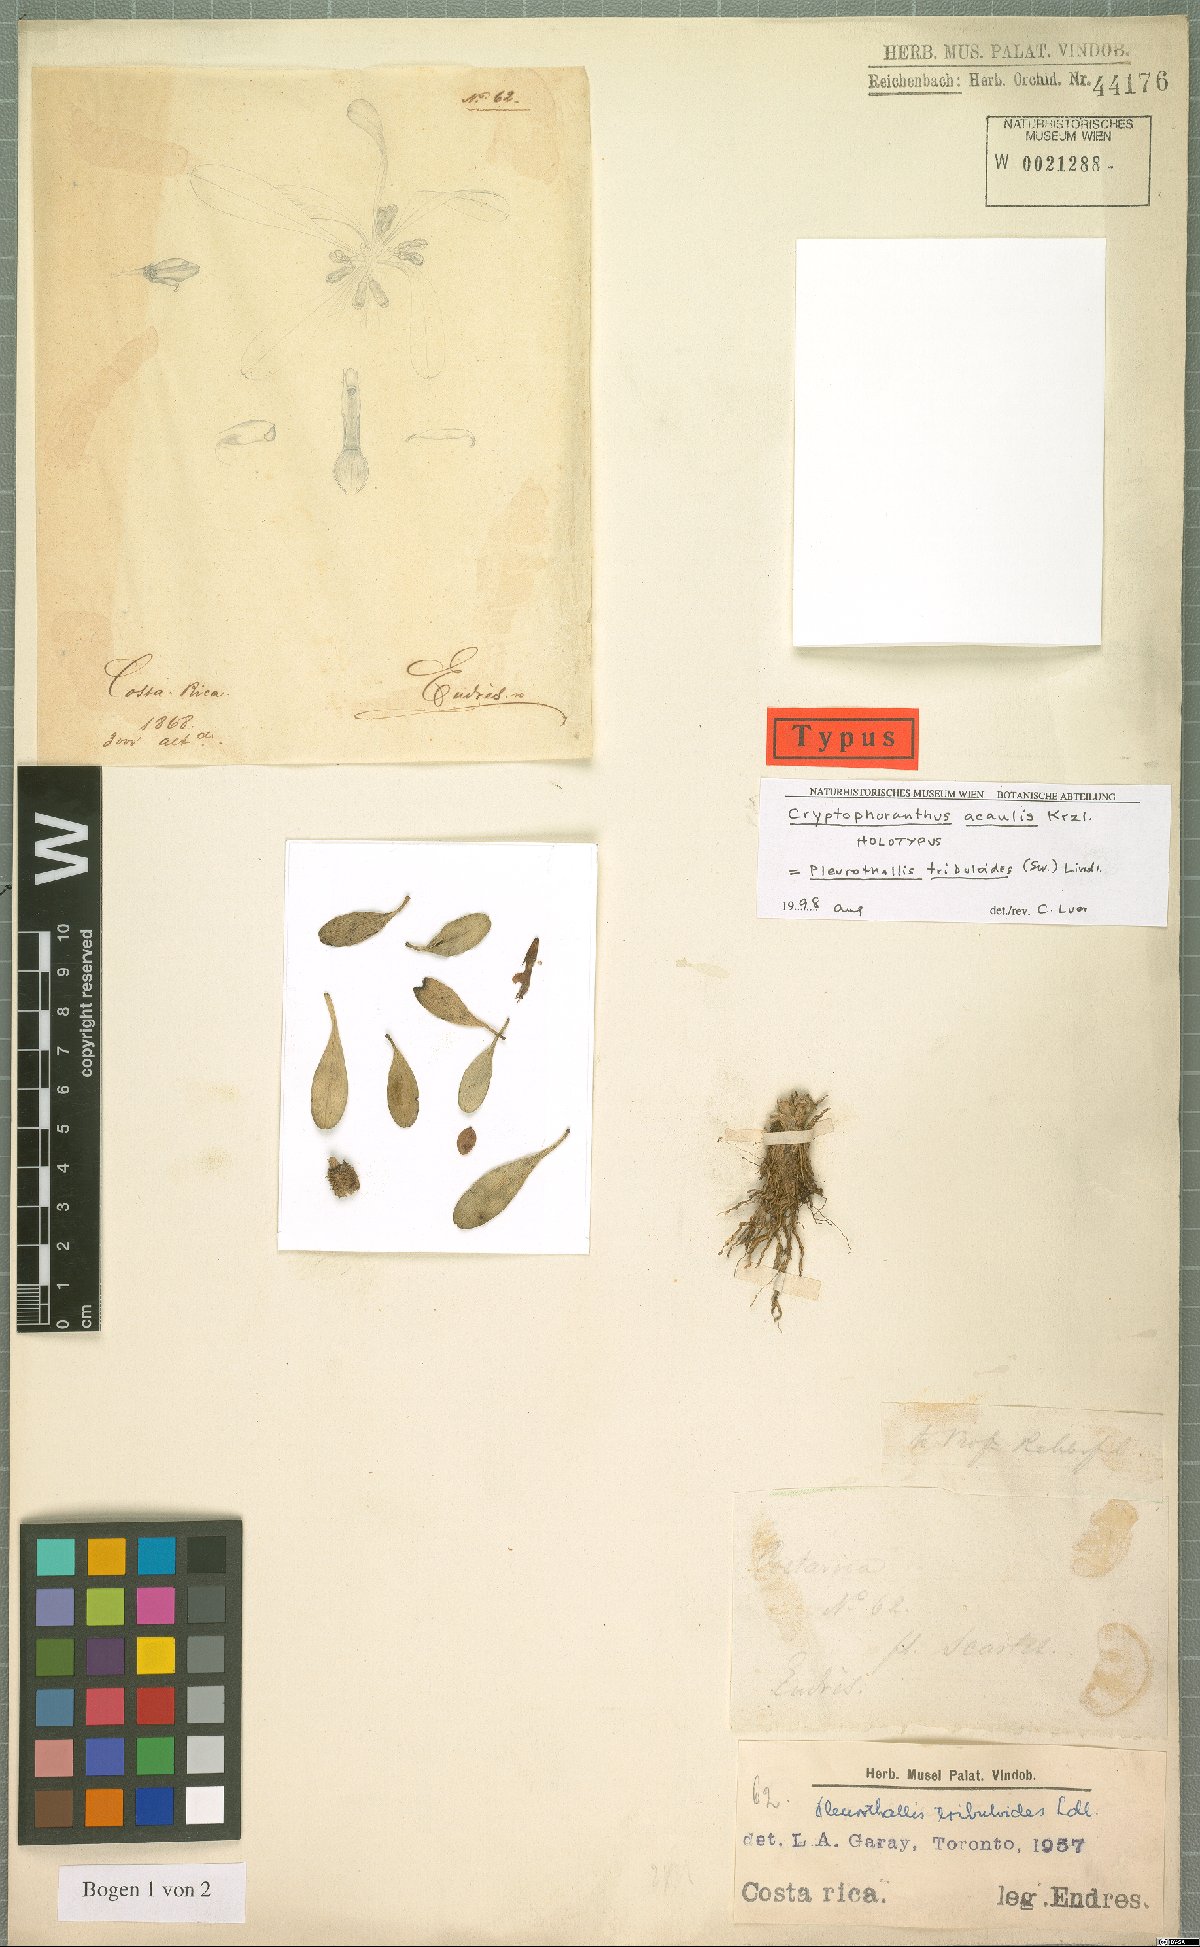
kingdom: Plantae
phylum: Tracheophyta
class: Liliopsida
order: Asparagales
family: Orchidaceae
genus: Specklinia
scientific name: Specklinia tribuloides
